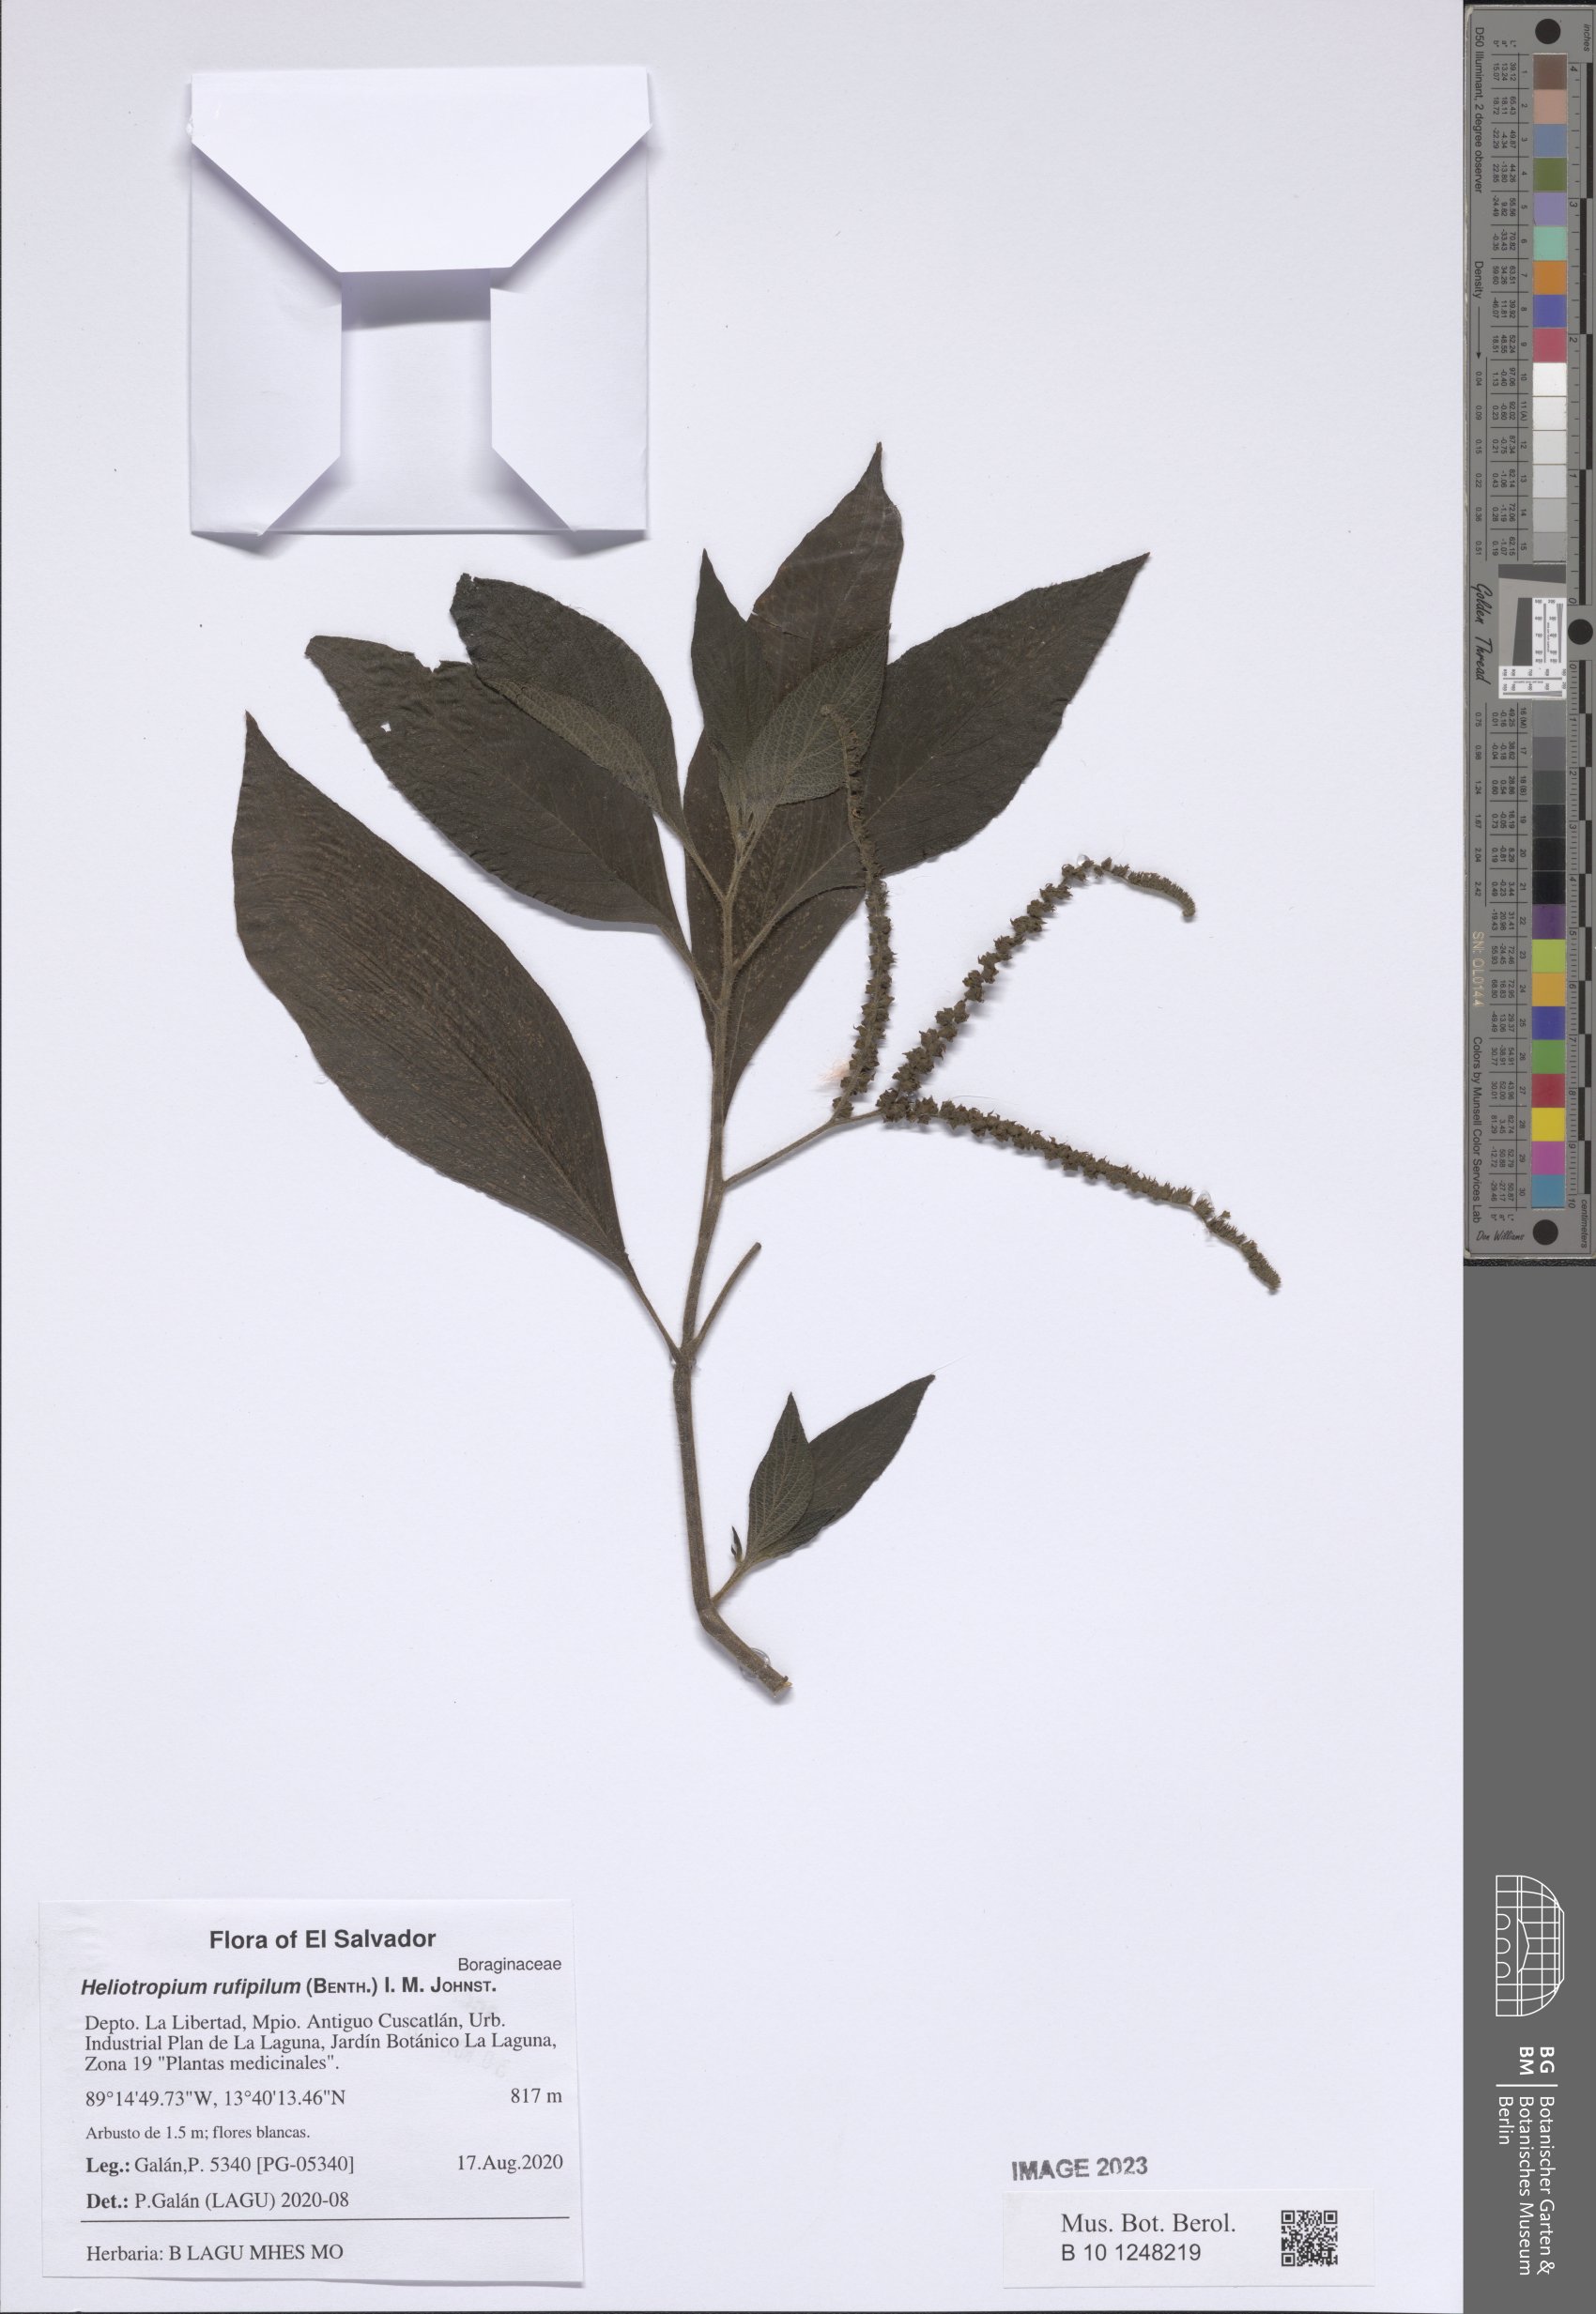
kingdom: Plantae
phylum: Tracheophyta
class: Magnoliopsida
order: Boraginales
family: Heliotropiaceae
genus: Heliotropium
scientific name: Heliotropium rufipilum
